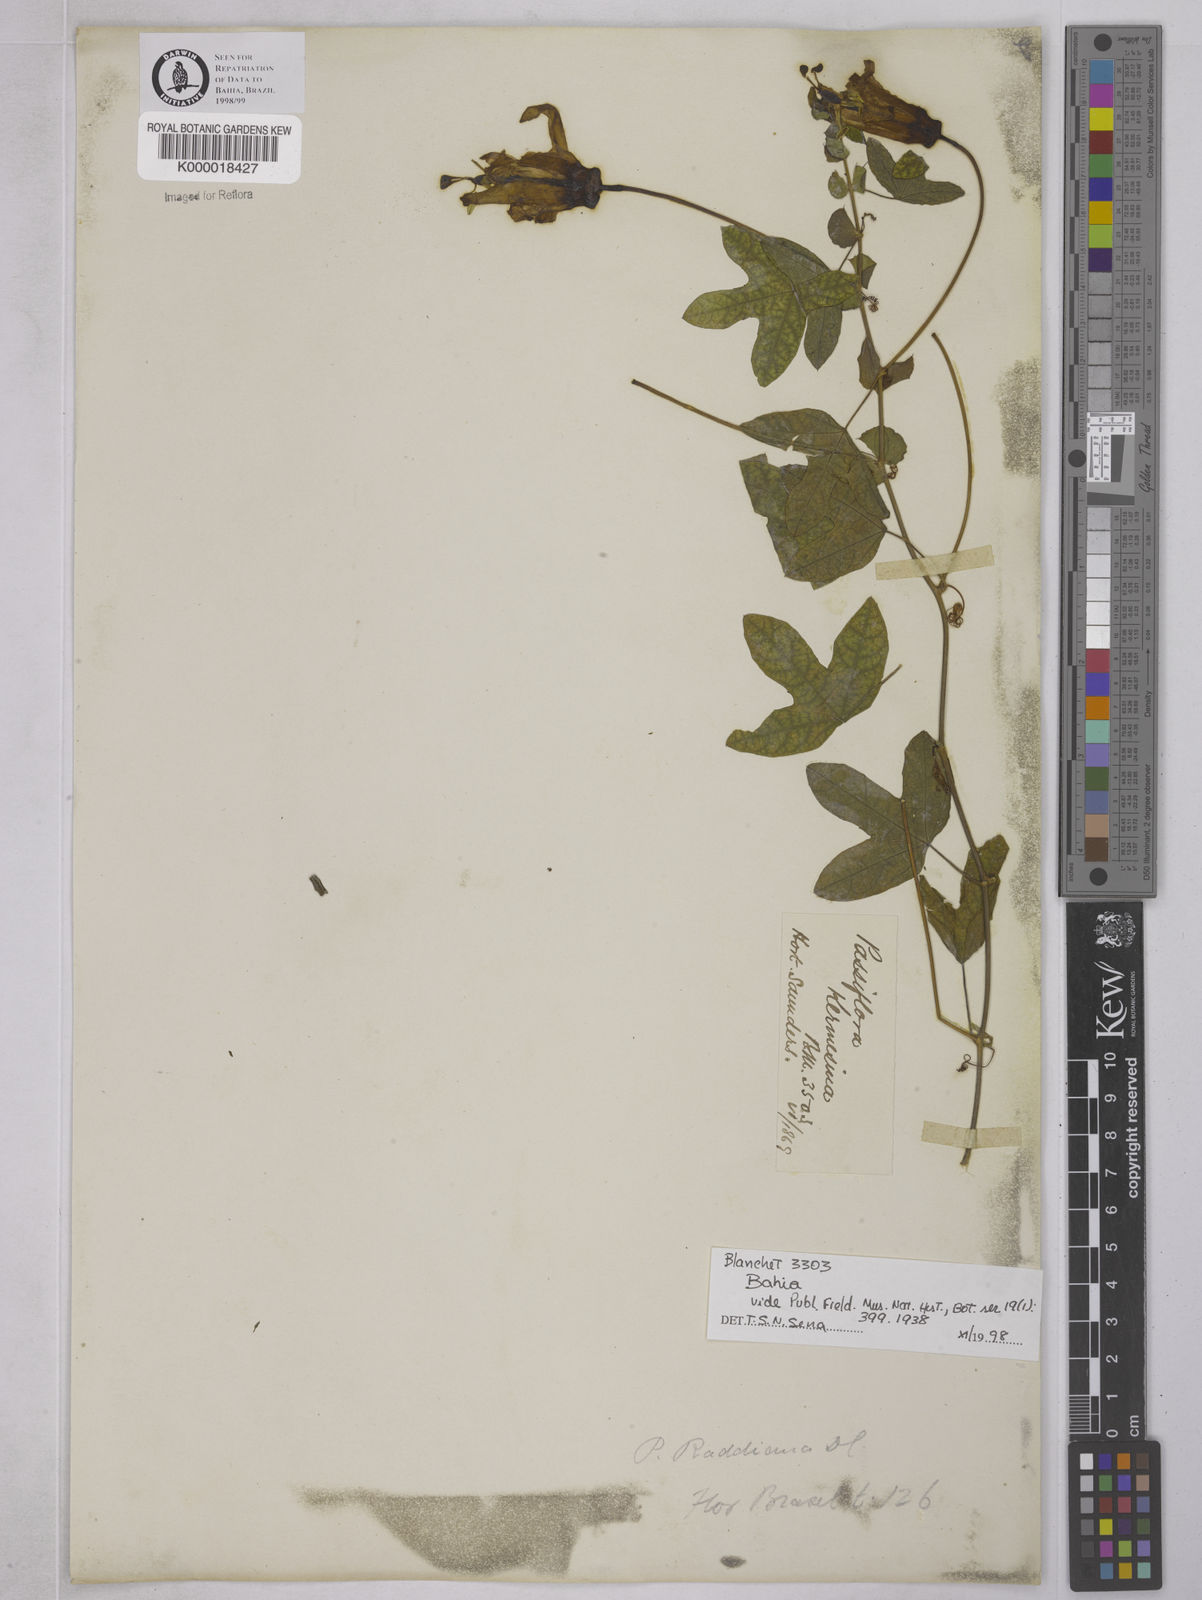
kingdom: Plantae
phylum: Tracheophyta
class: Magnoliopsida
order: Malpighiales
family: Passifloraceae
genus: Passiflora
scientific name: Passiflora kermesina
